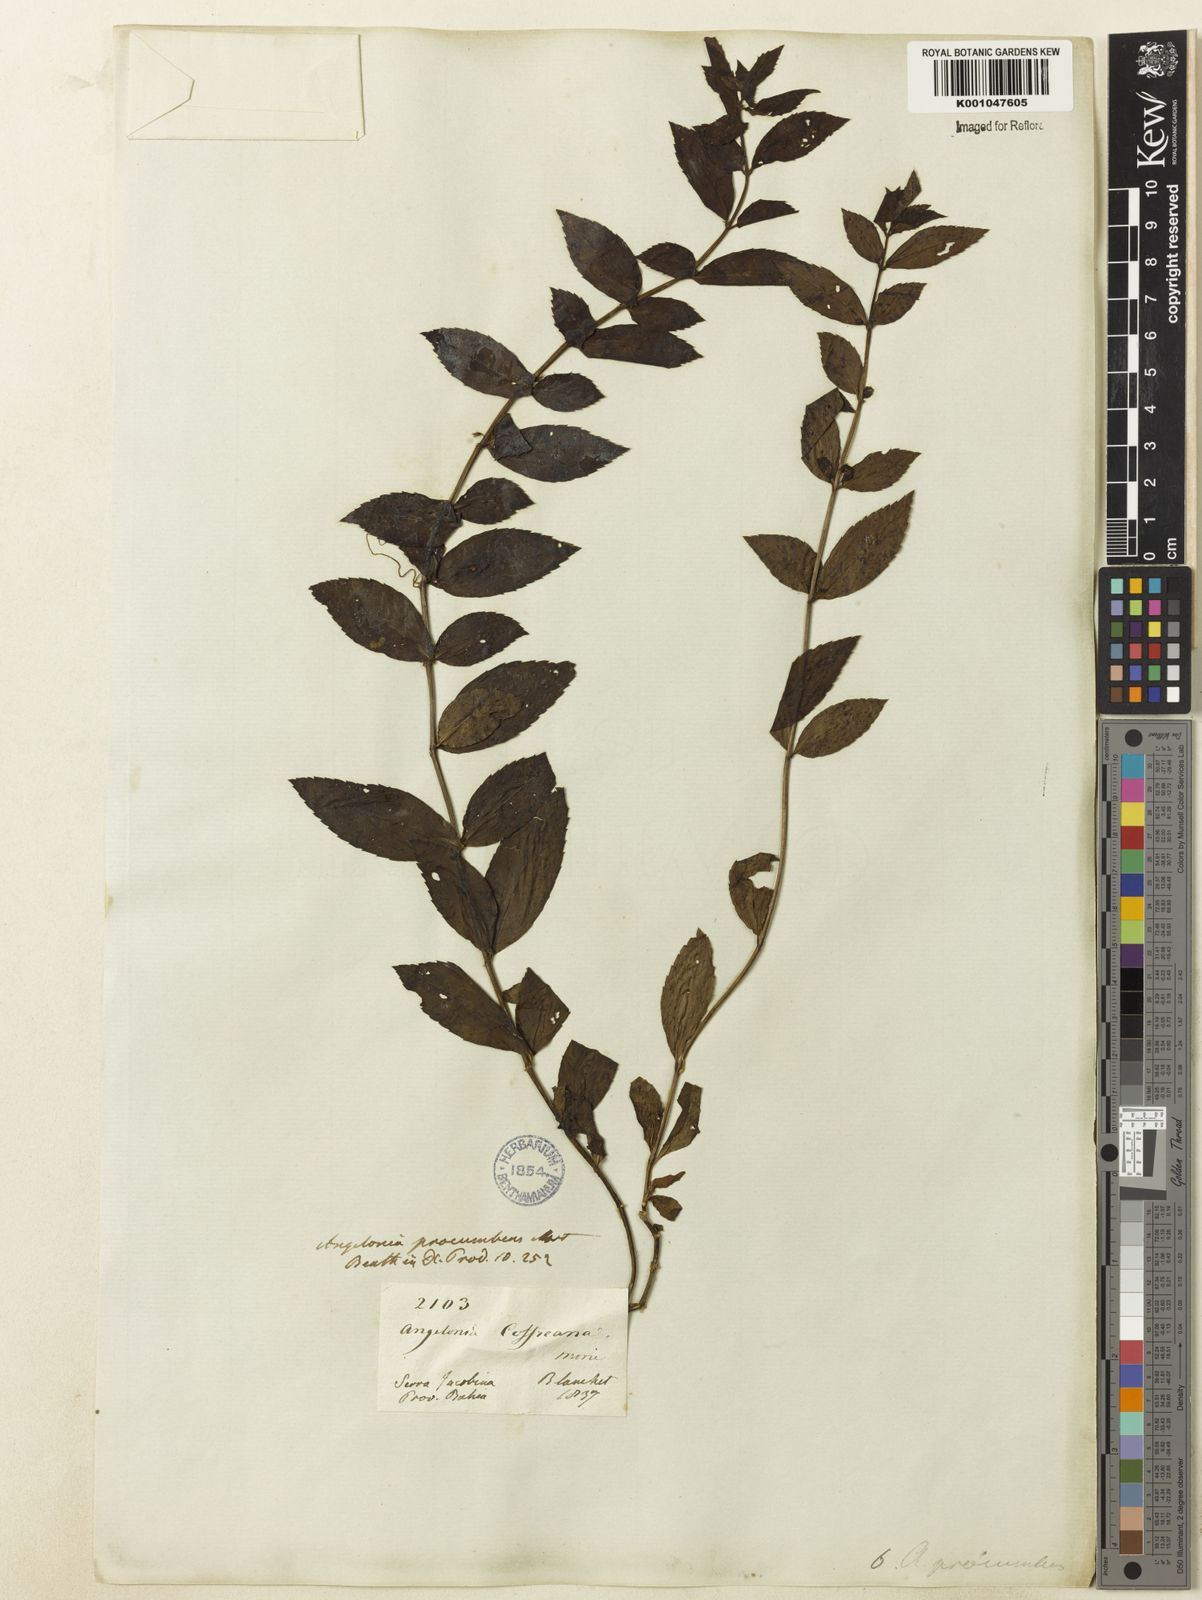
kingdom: Plantae
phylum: Tracheophyta
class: Magnoliopsida
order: Lamiales
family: Plantaginaceae
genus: Angelonia
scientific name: Angelonia procumbens
